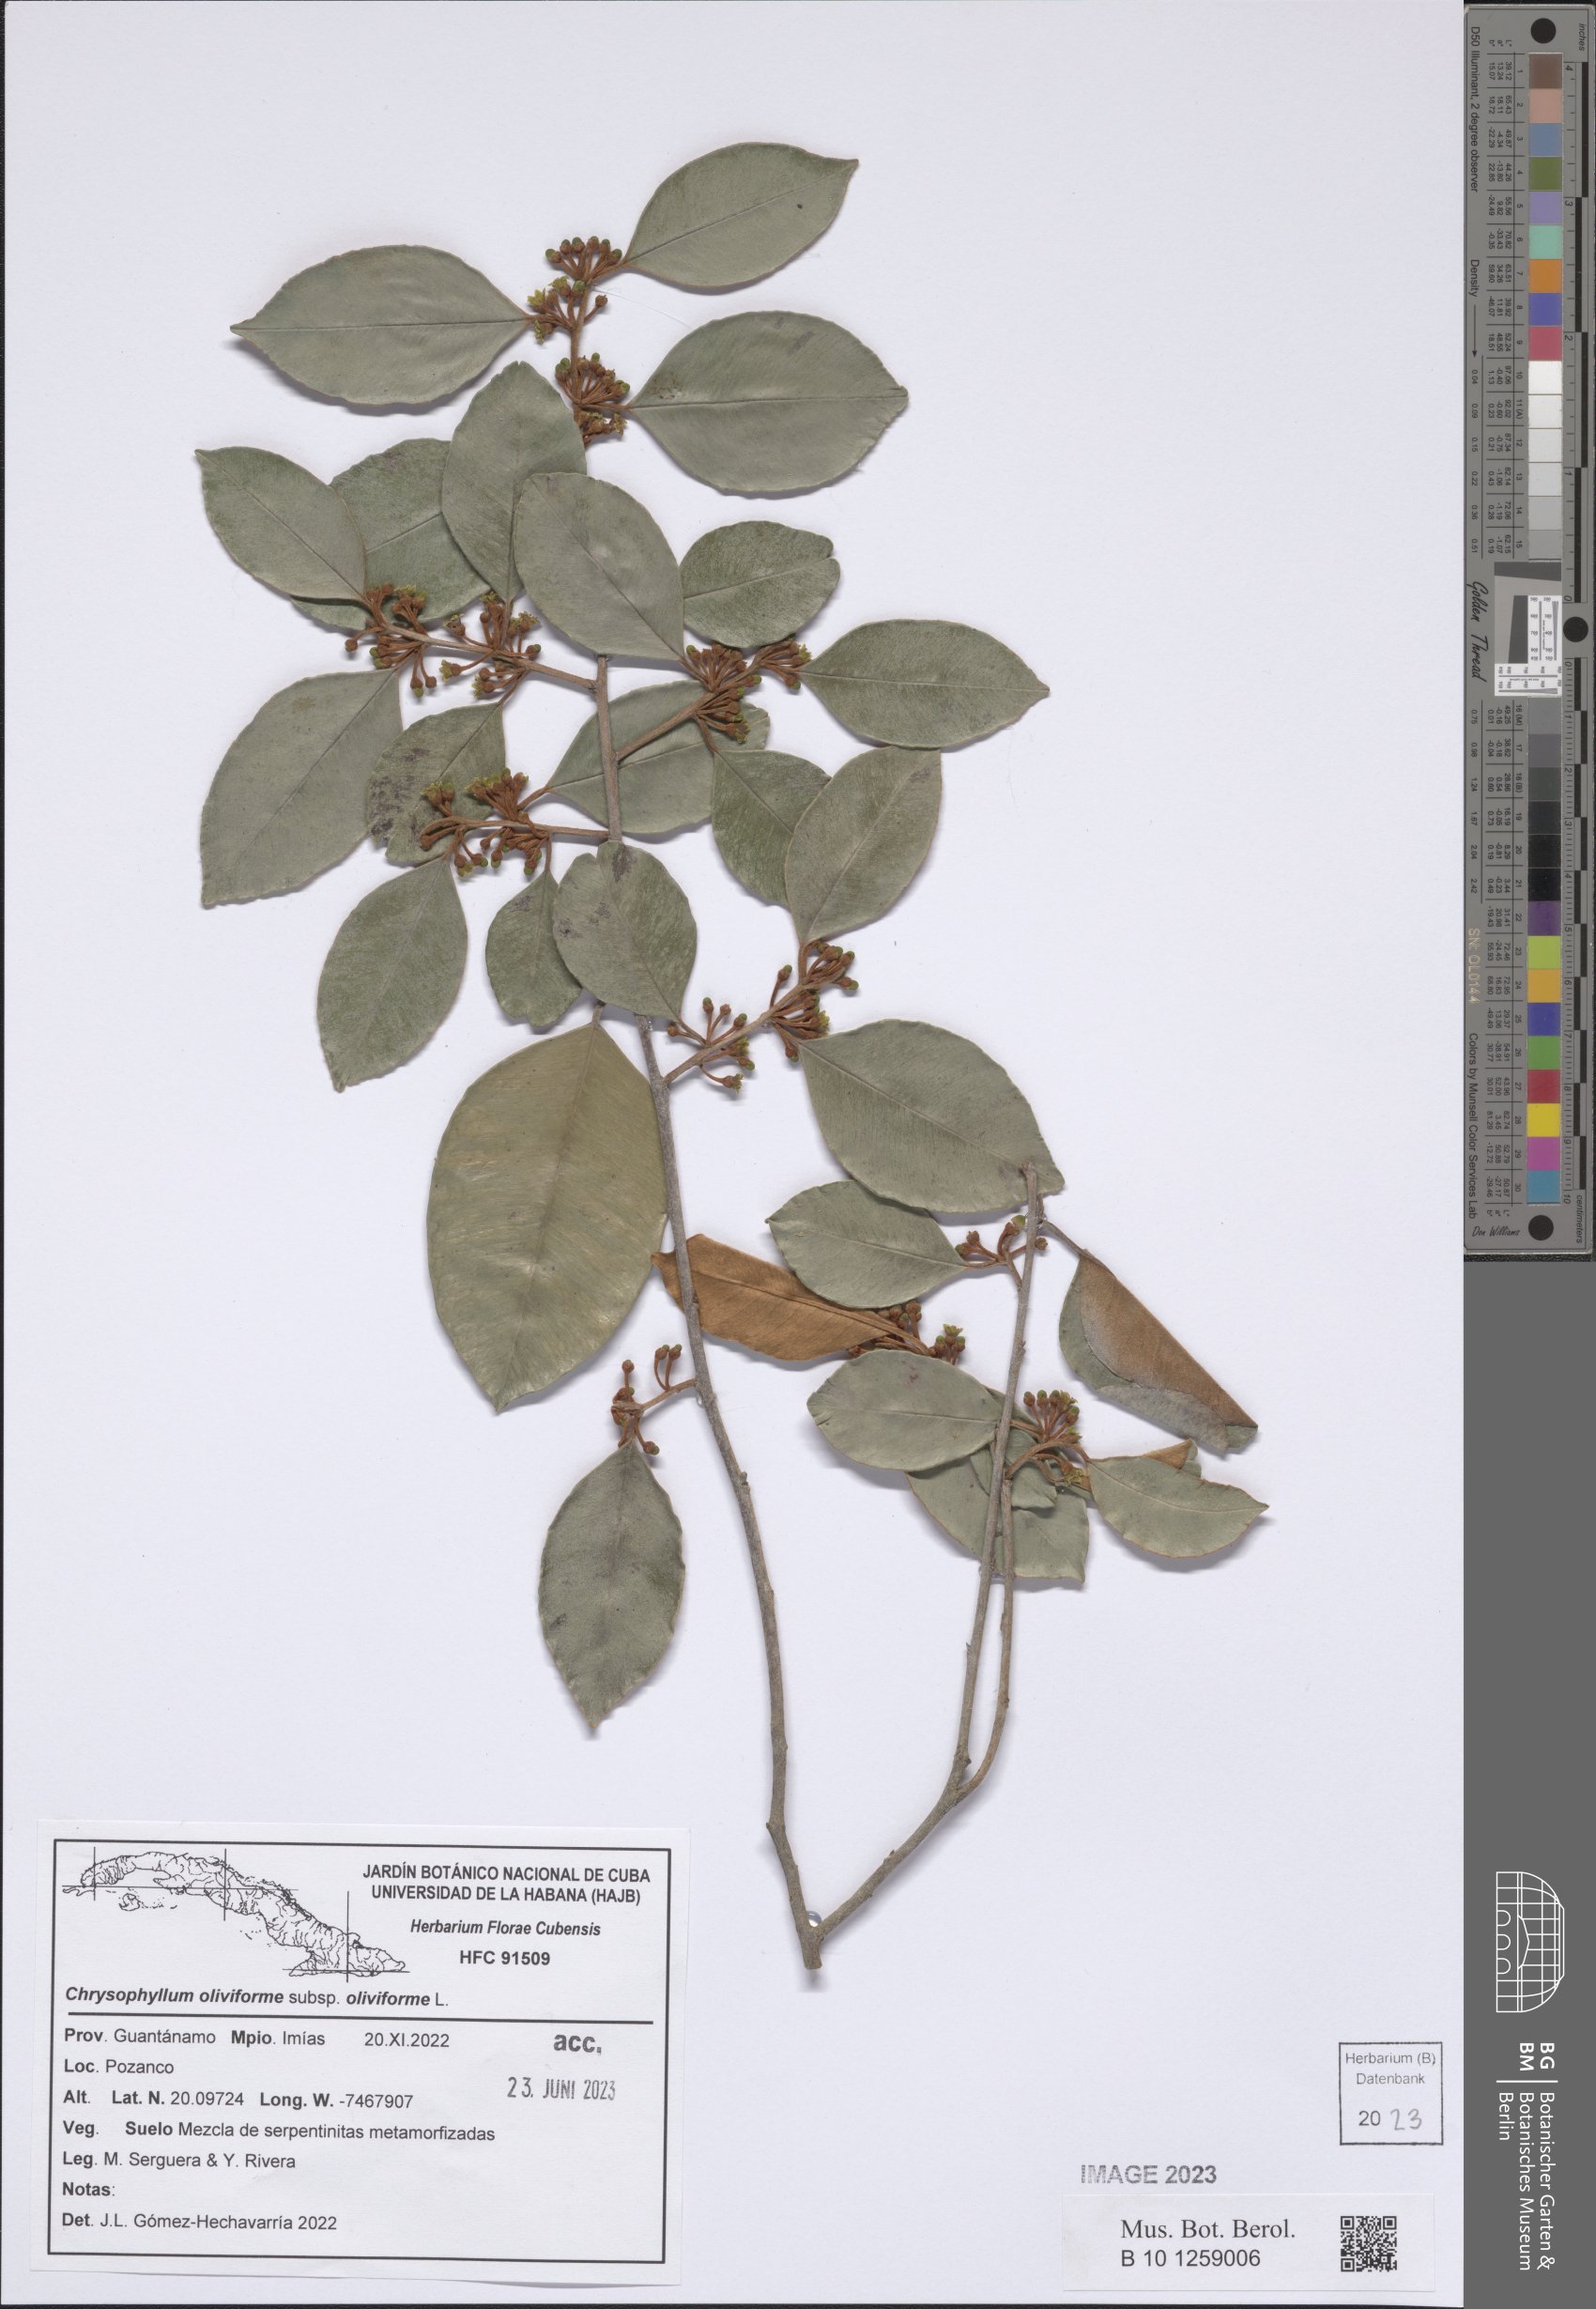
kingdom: Plantae
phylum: Tracheophyta
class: Magnoliopsida
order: Ericales
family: Sapotaceae
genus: Chrysophyllum
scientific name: Chrysophyllum oliviforme
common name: Satinleaf
